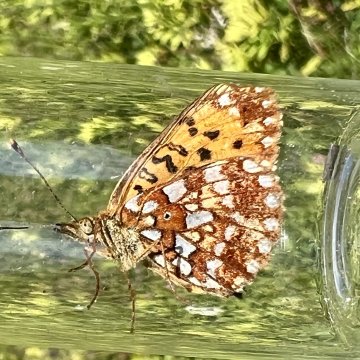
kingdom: Animalia
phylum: Arthropoda
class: Insecta
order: Lepidoptera
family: Nymphalidae
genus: Boloria
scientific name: Boloria selene
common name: Silver-bordered Fritillary
